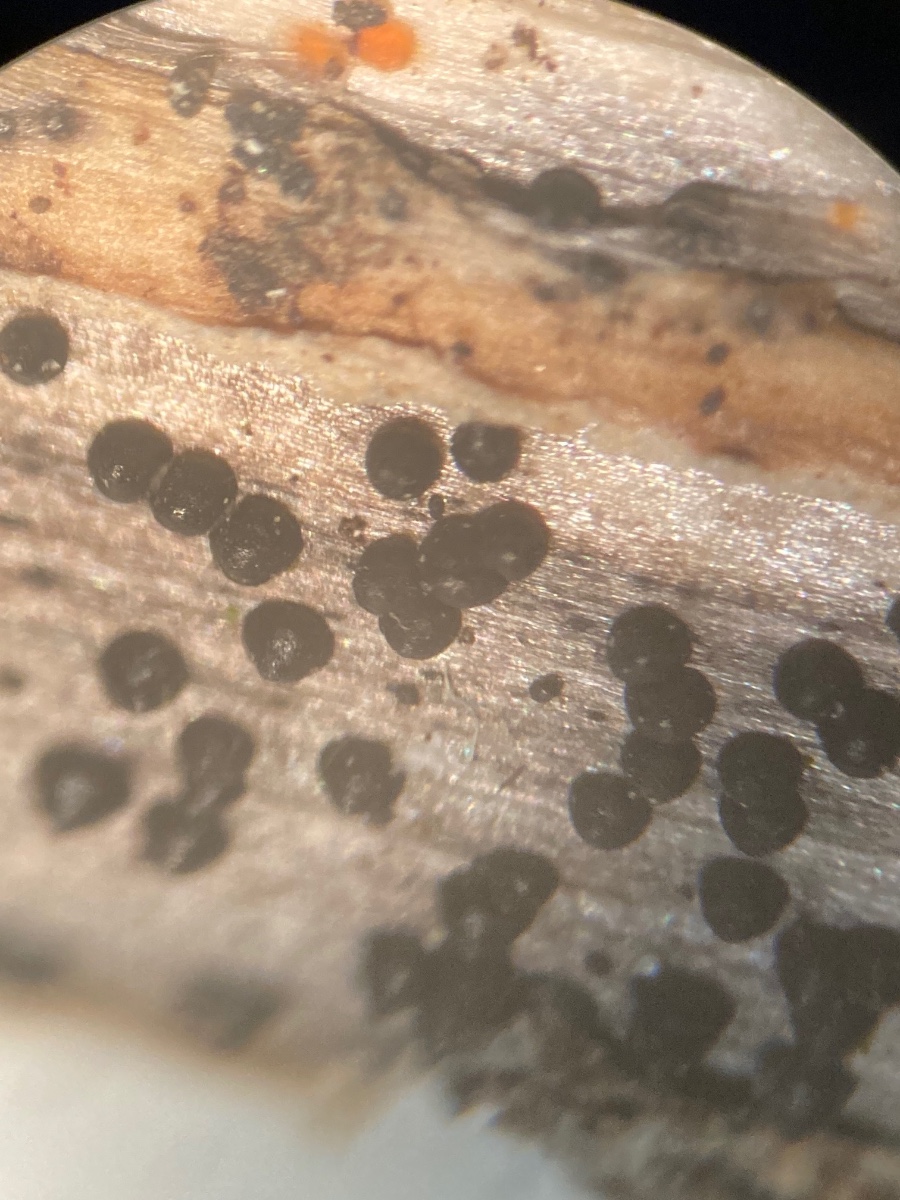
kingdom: Fungi
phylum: Ascomycota
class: Dothideomycetes
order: Pleosporales
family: Leptosphaeriaceae
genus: Leptosphaeria
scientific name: Leptosphaeria acuta
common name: spids kulkegle
